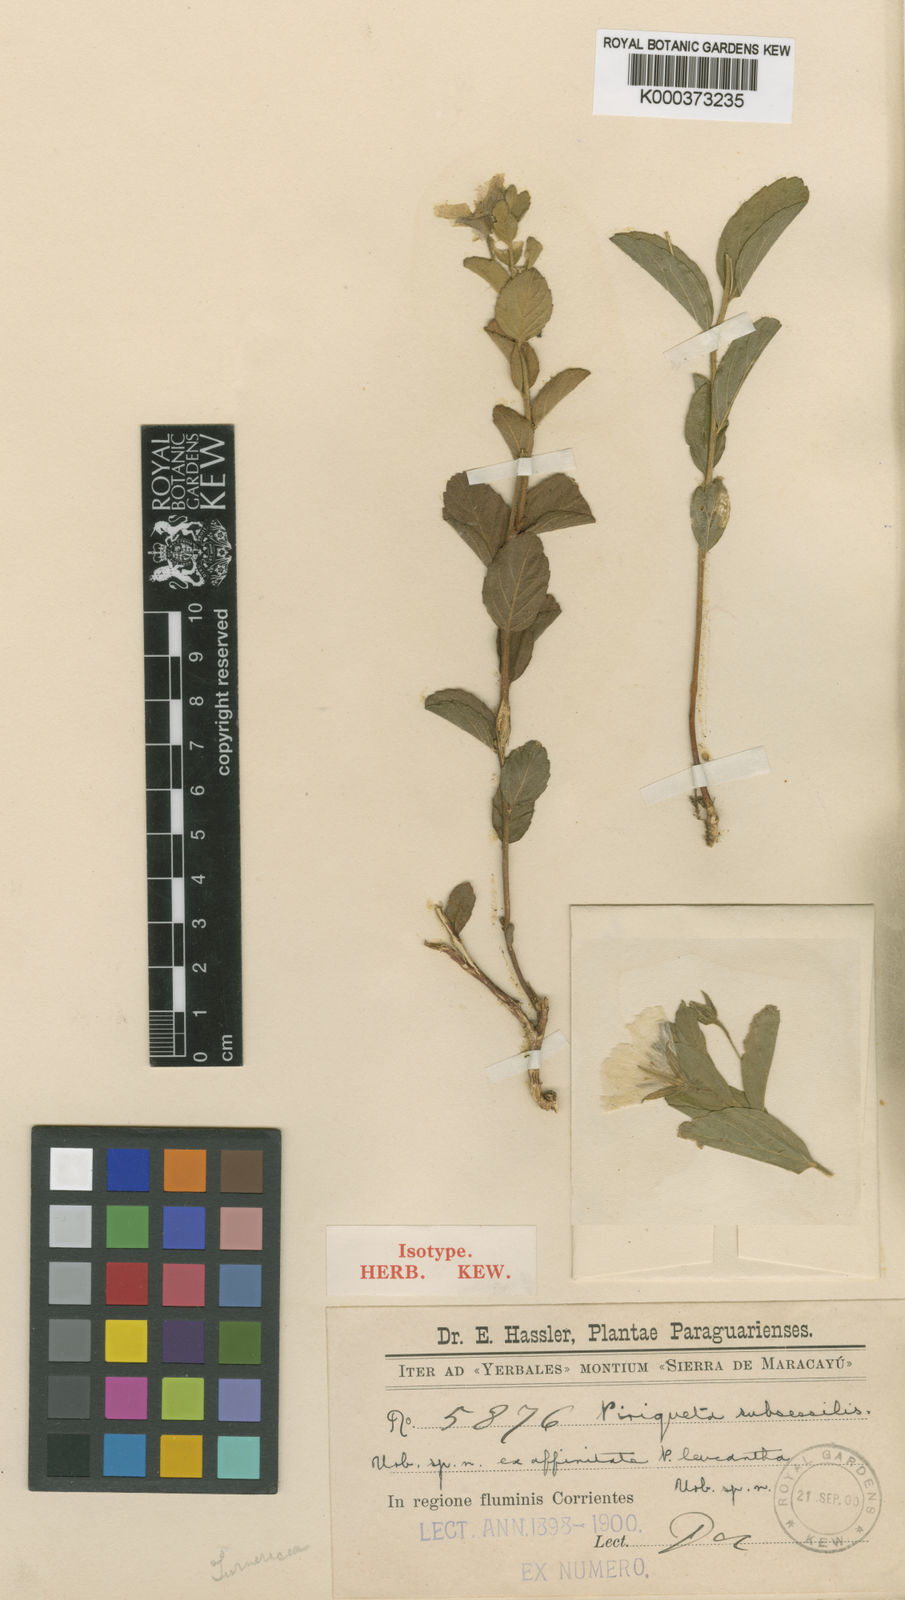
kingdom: Plantae
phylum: Tracheophyta
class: Magnoliopsida
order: Malpighiales
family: Turneraceae
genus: Piriqueta
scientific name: Piriqueta subsessilis
